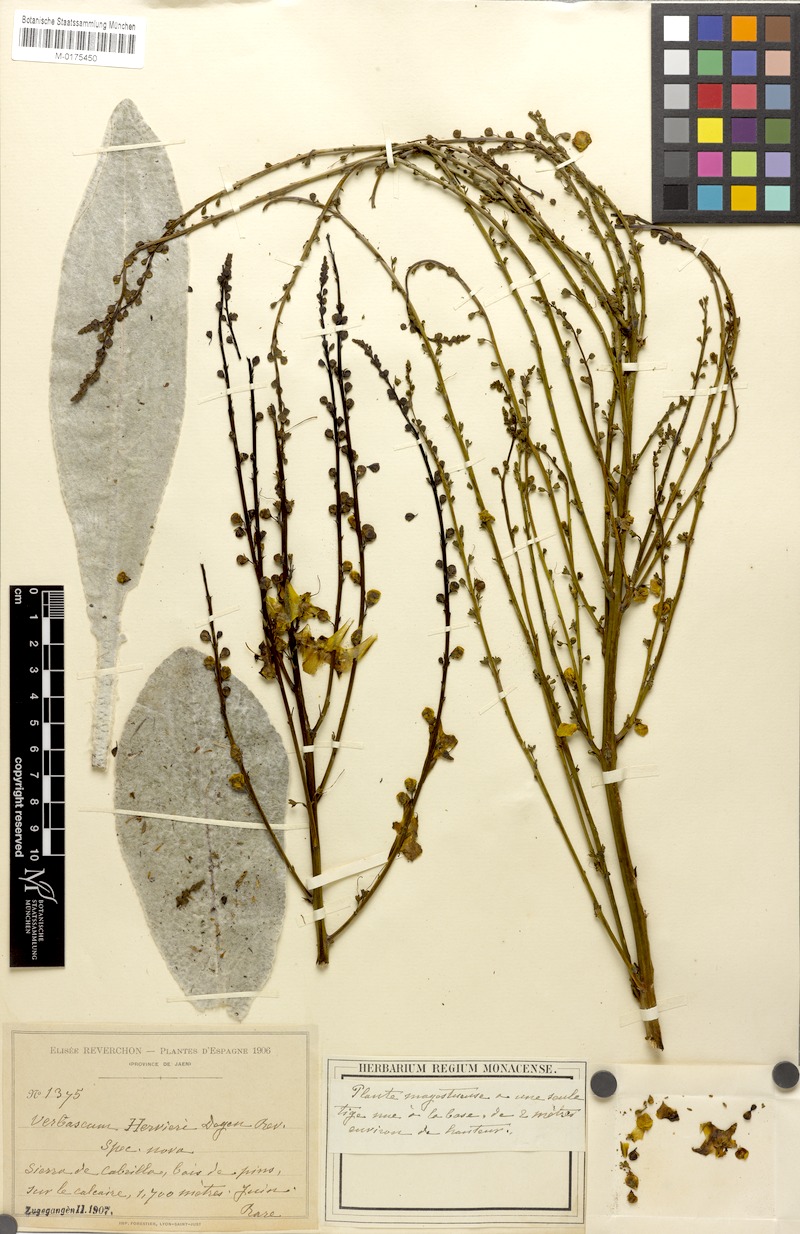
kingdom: Plantae
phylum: Tracheophyta
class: Magnoliopsida
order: Lamiales
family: Scrophulariaceae
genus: Verbascum
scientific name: Verbascum hervieri
